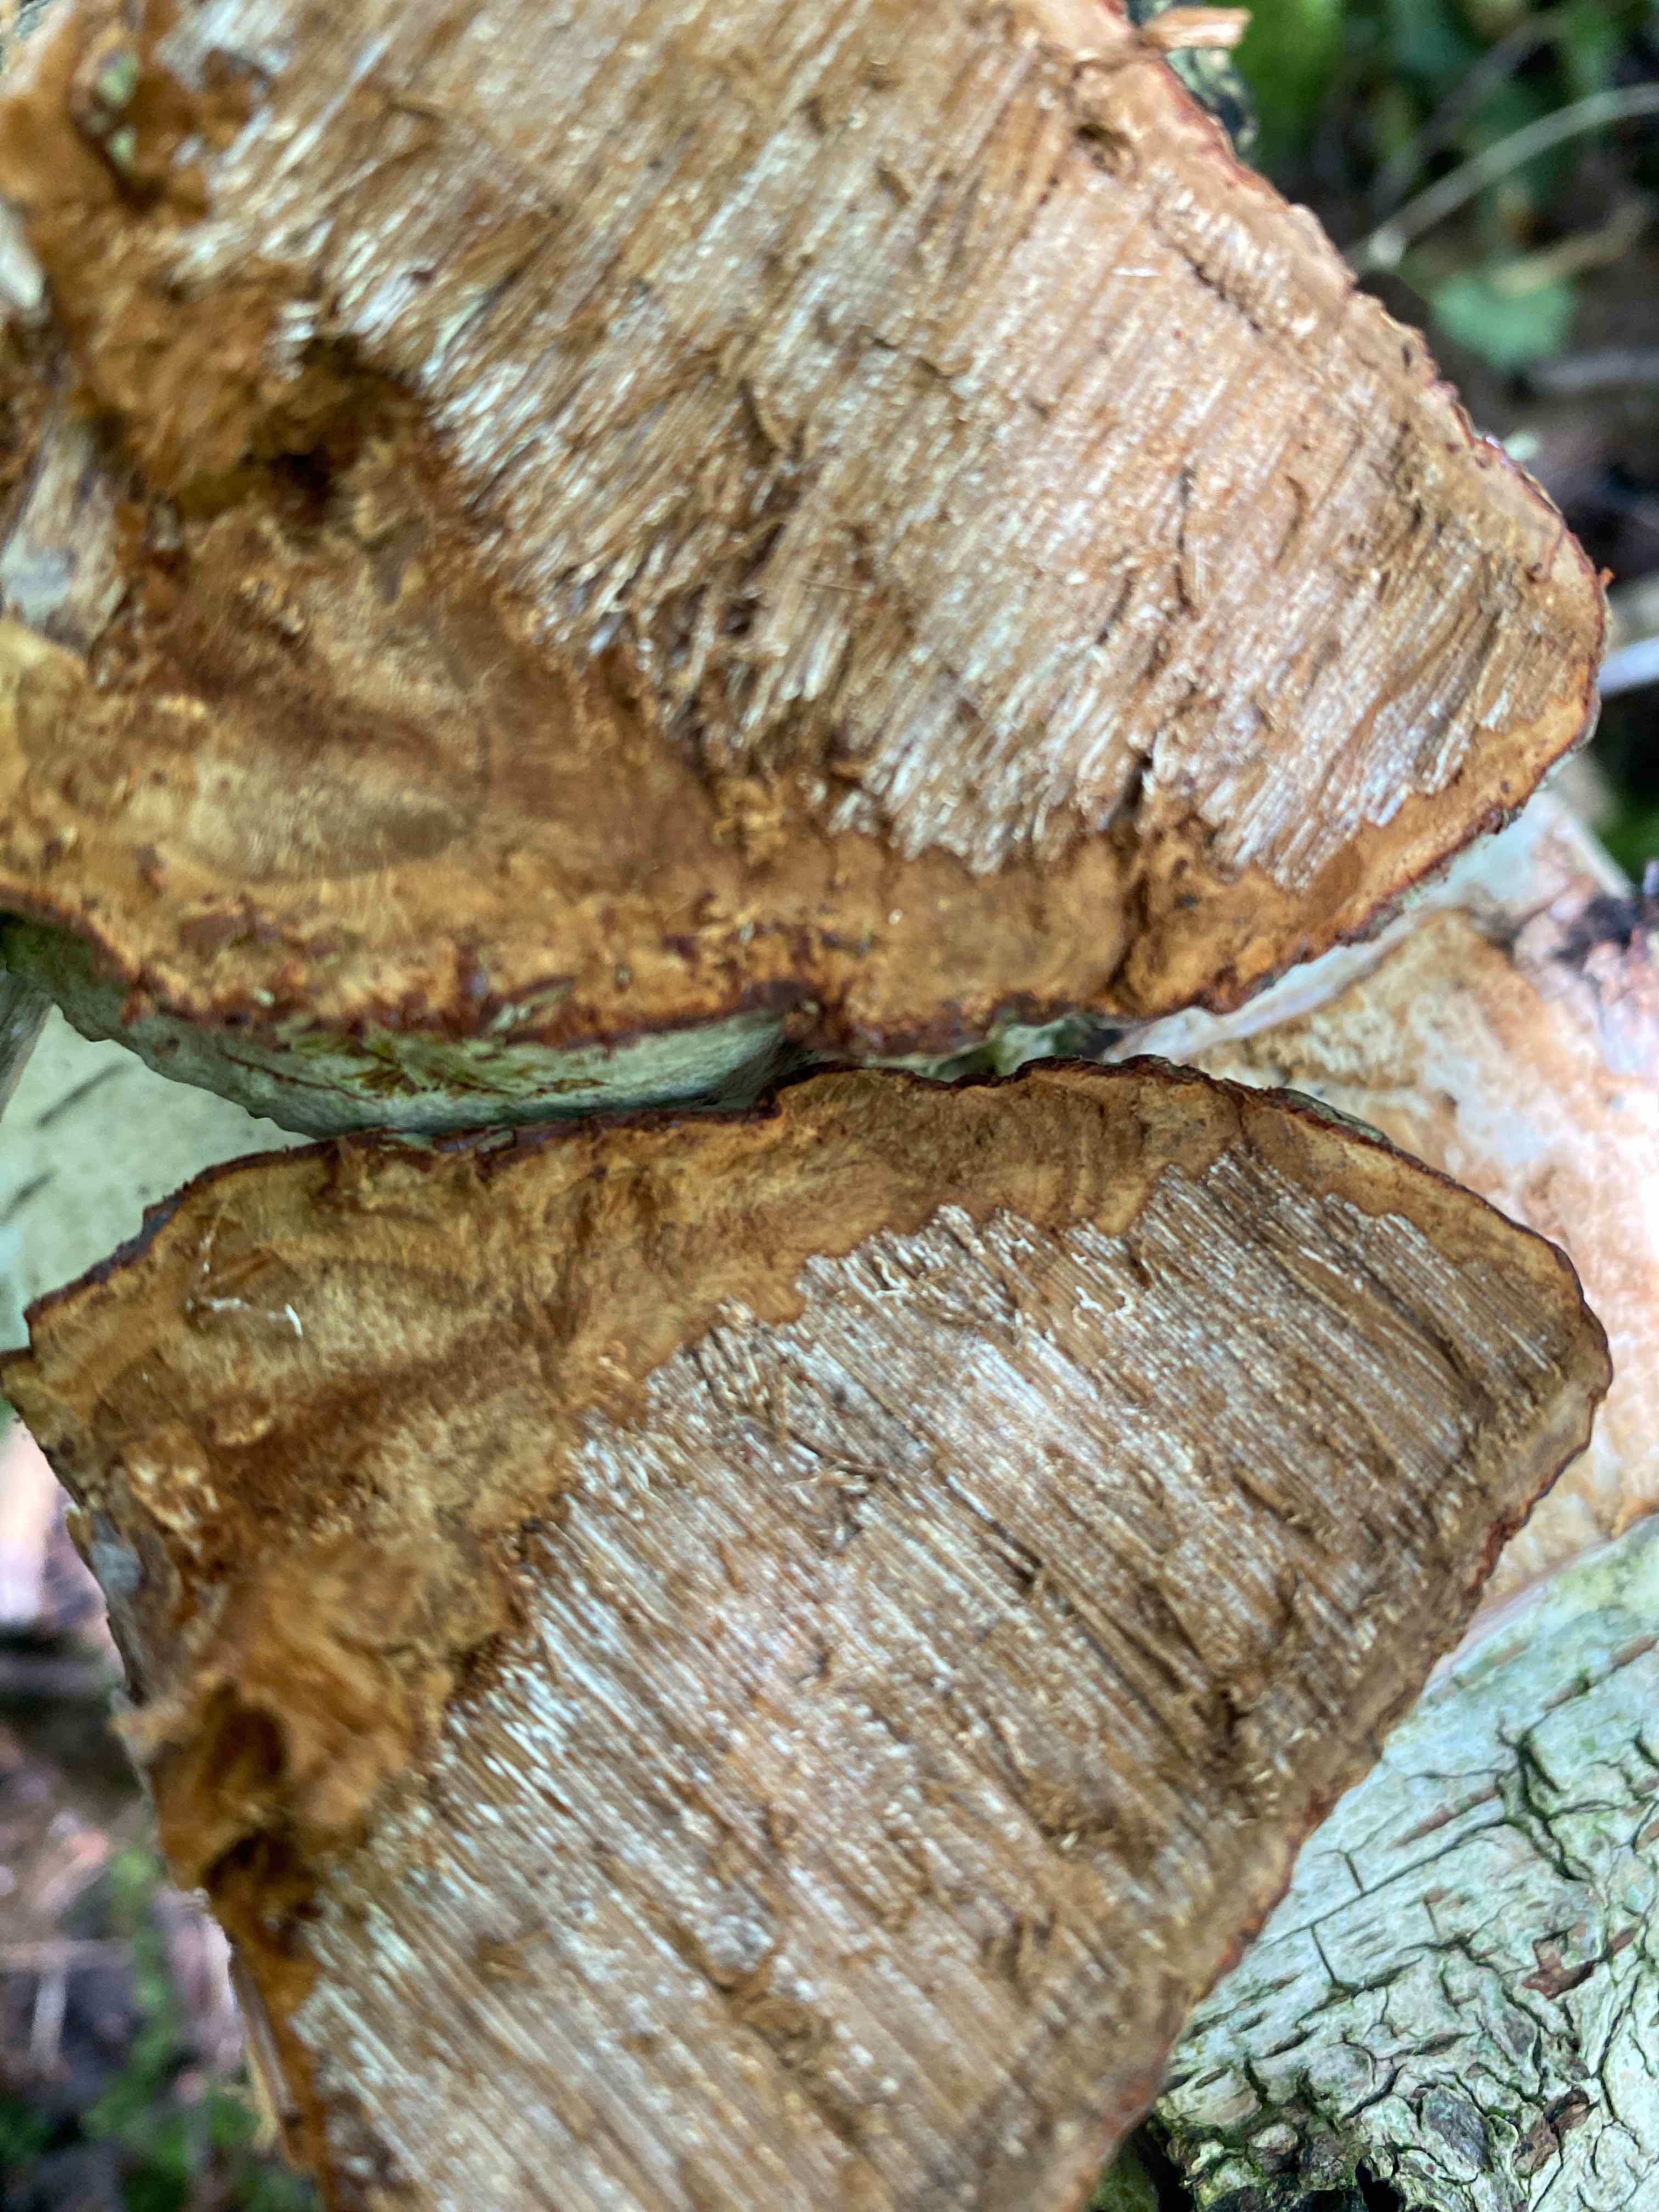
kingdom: Fungi
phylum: Basidiomycota
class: Agaricomycetes
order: Polyporales
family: Polyporaceae
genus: Fomes
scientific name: Fomes fomentarius
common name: tøndersvamp
